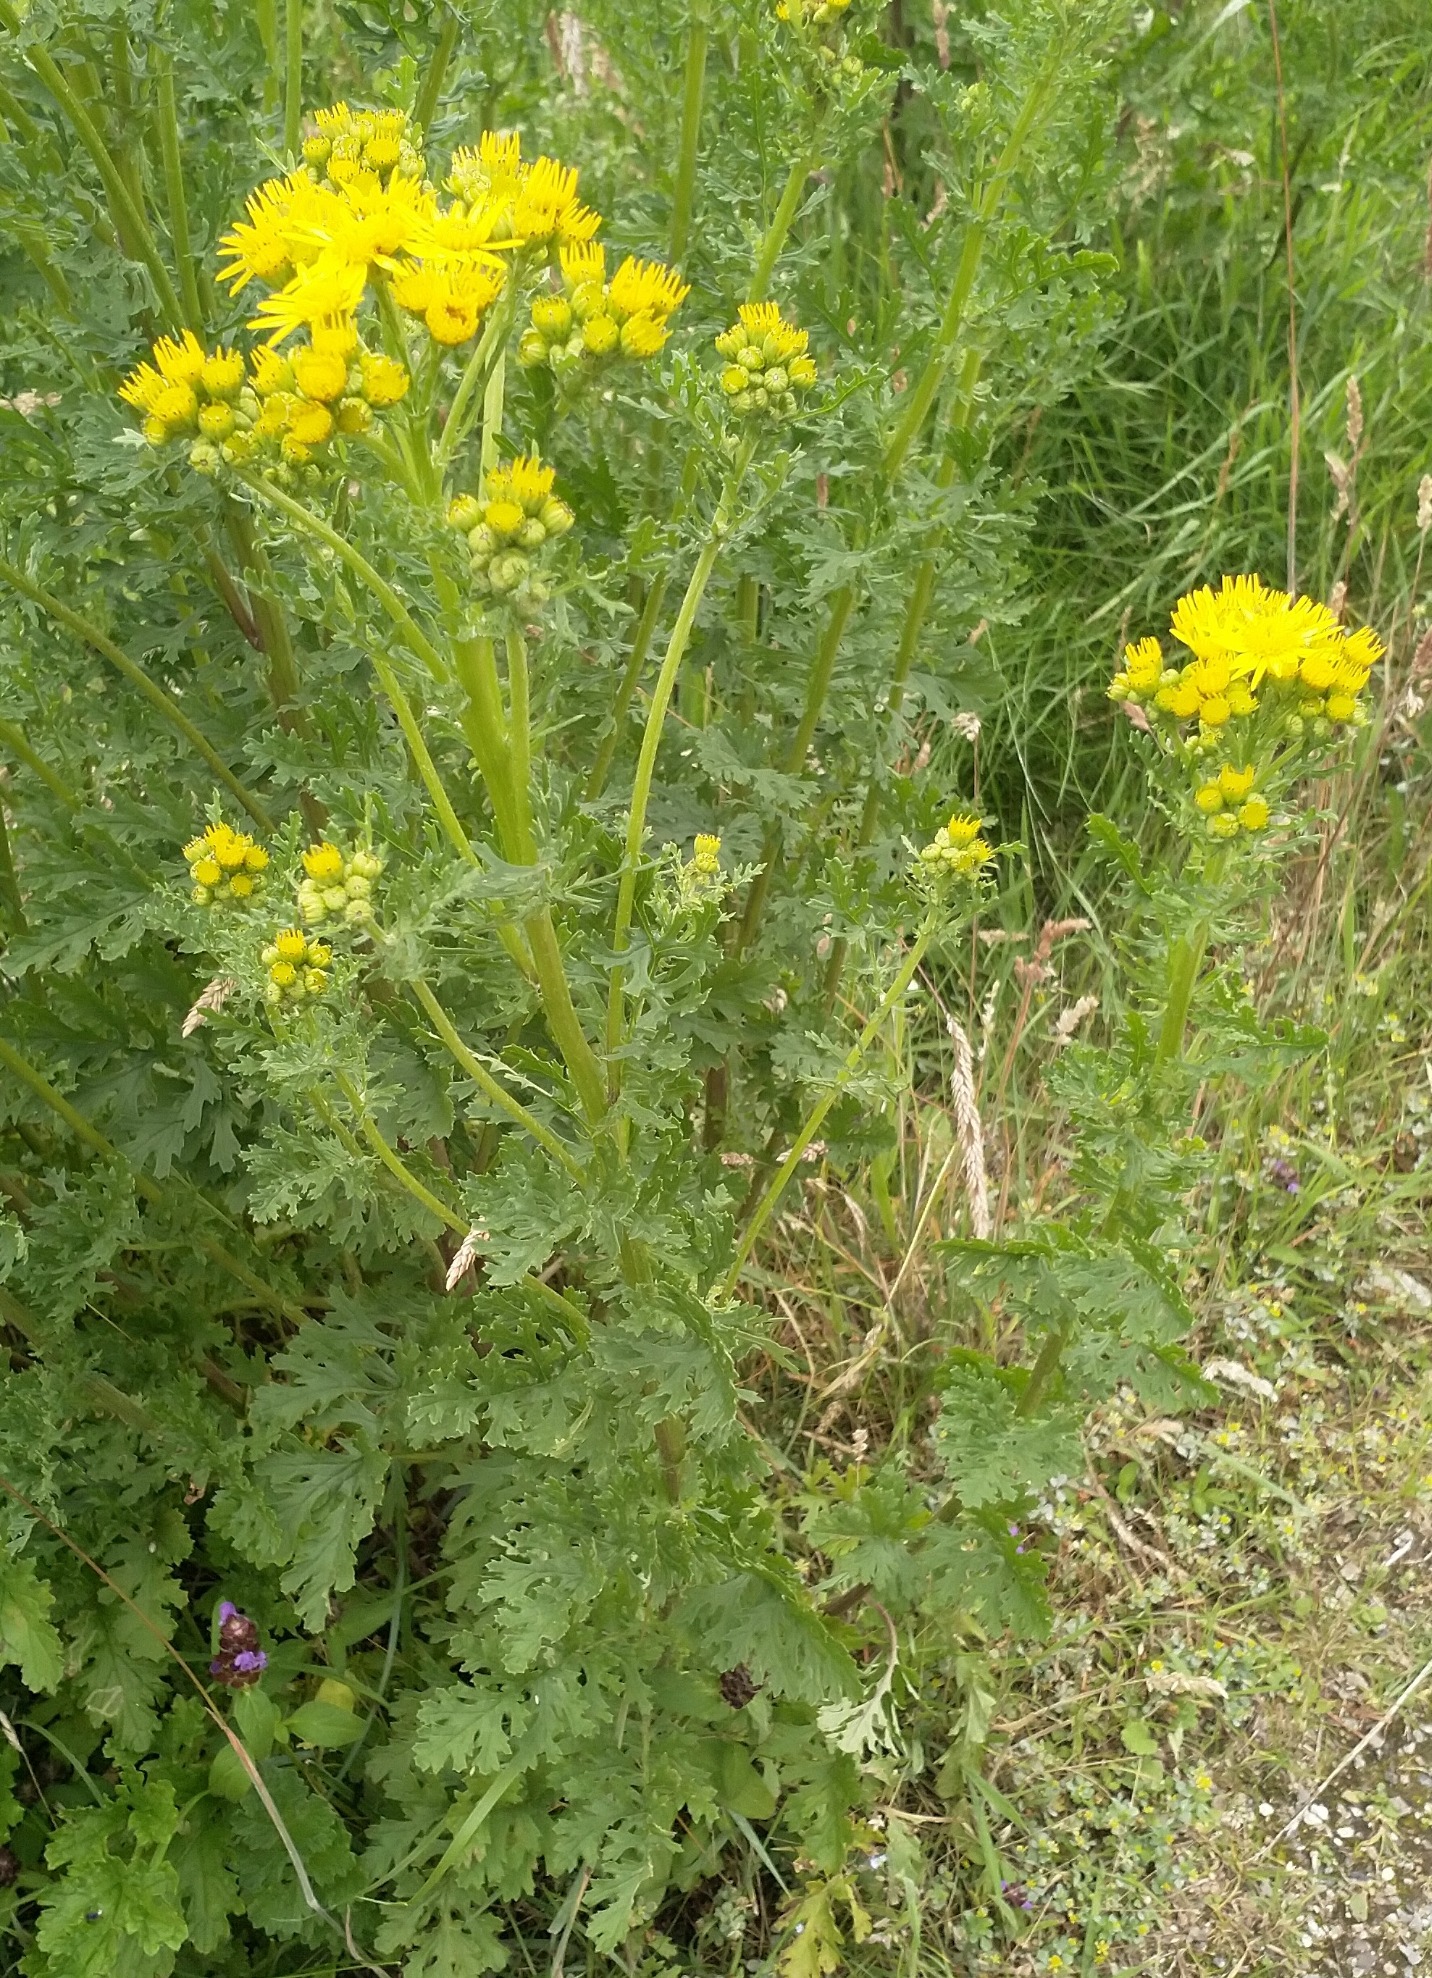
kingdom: Plantae
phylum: Tracheophyta
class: Magnoliopsida
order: Asterales
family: Asteraceae
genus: Jacobaea
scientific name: Jacobaea vulgaris
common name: Eng-brandbæger
